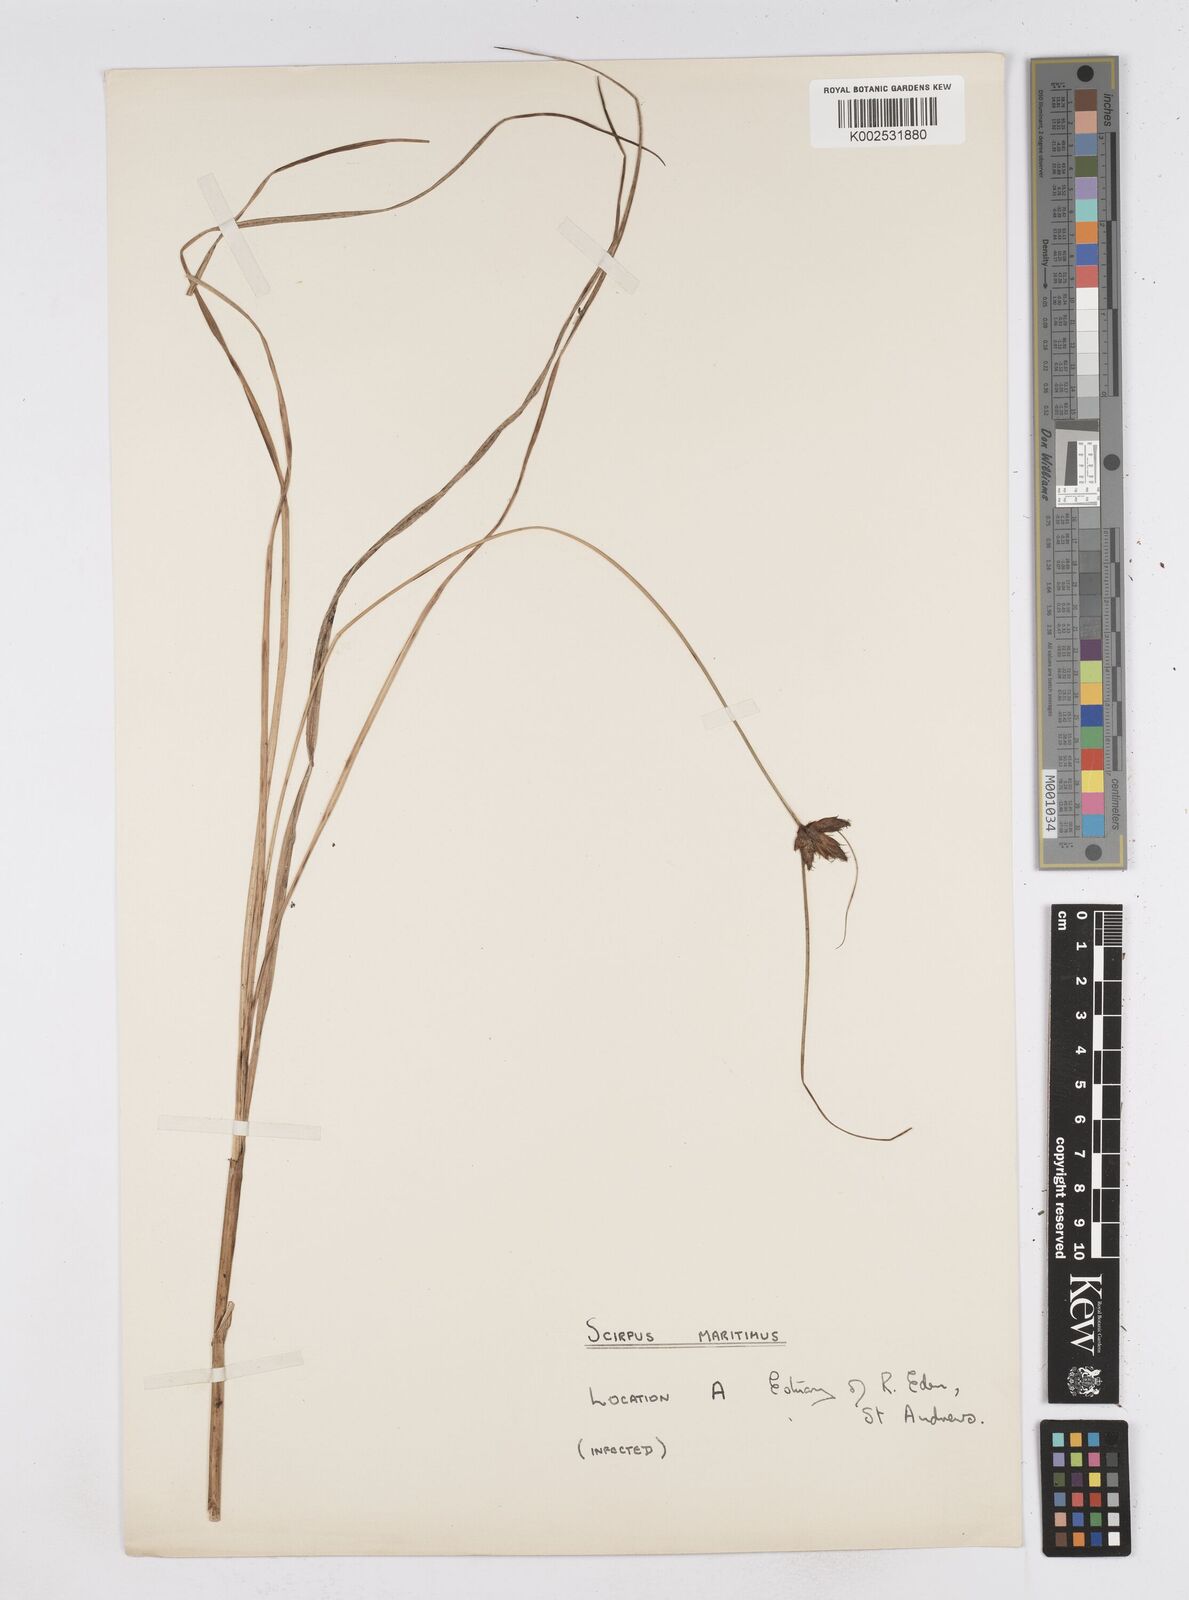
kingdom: Plantae
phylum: Tracheophyta
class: Liliopsida
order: Poales
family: Cyperaceae
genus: Bolboschoenus
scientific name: Bolboschoenus maritimus
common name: Sea club-rush
